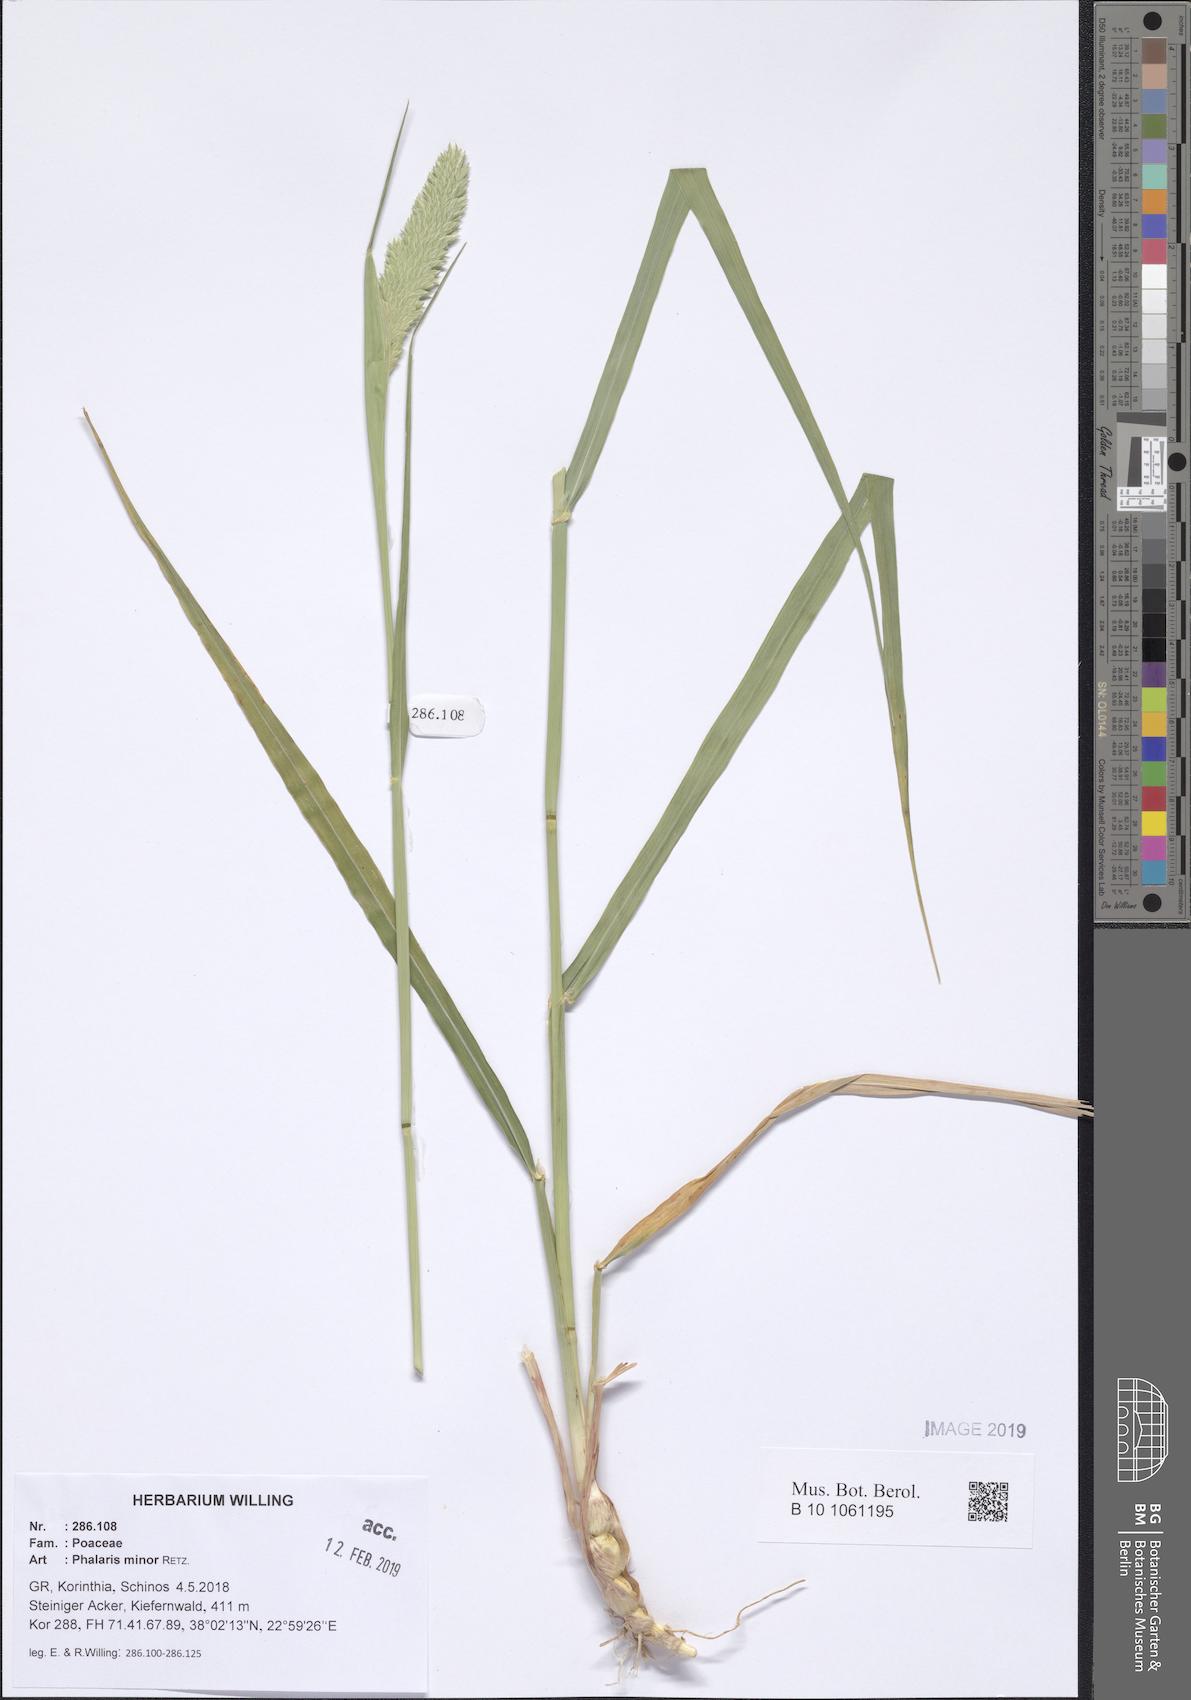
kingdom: Plantae
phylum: Tracheophyta
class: Liliopsida
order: Poales
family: Poaceae
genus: Phalaris
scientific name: Phalaris minor
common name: Littleseed canarygrass
